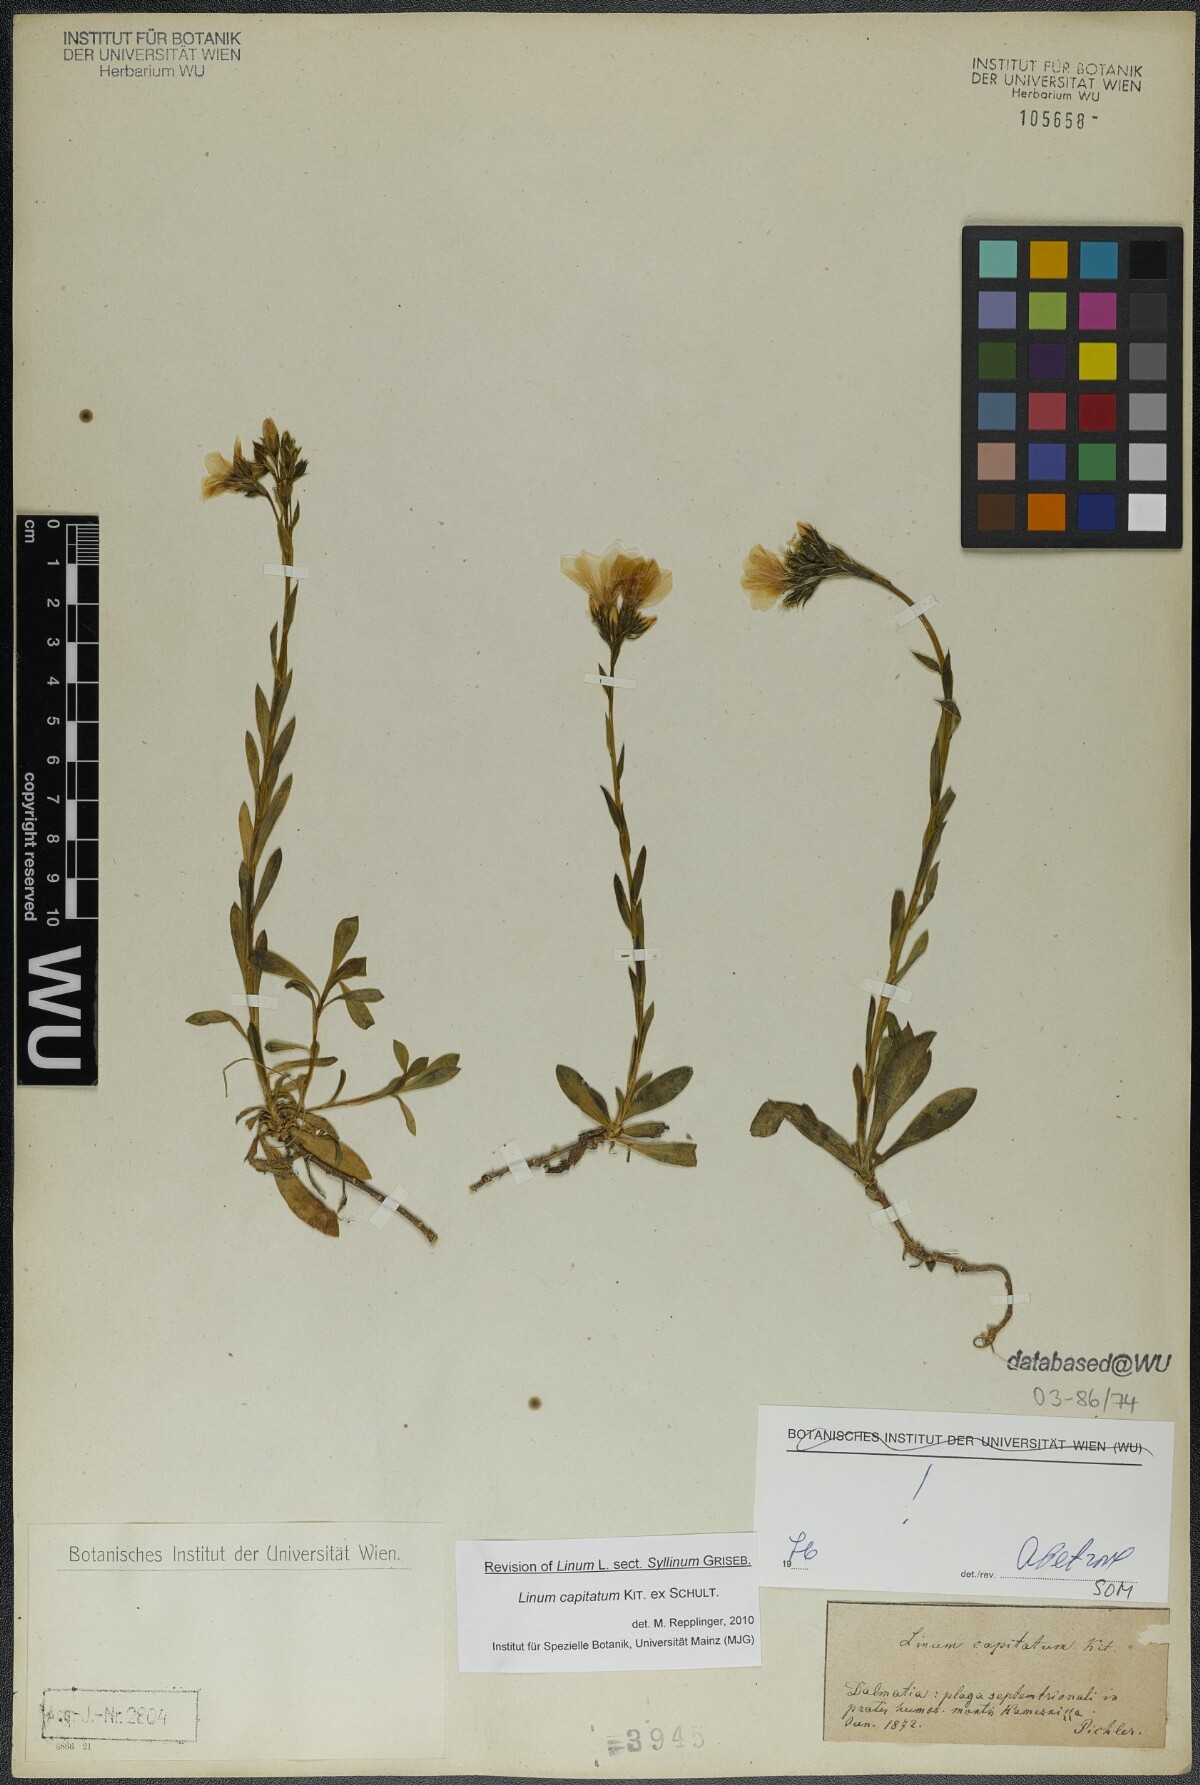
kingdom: Plantae
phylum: Tracheophyta
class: Magnoliopsida
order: Malpighiales
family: Linaceae
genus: Linum
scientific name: Linum capitatum
